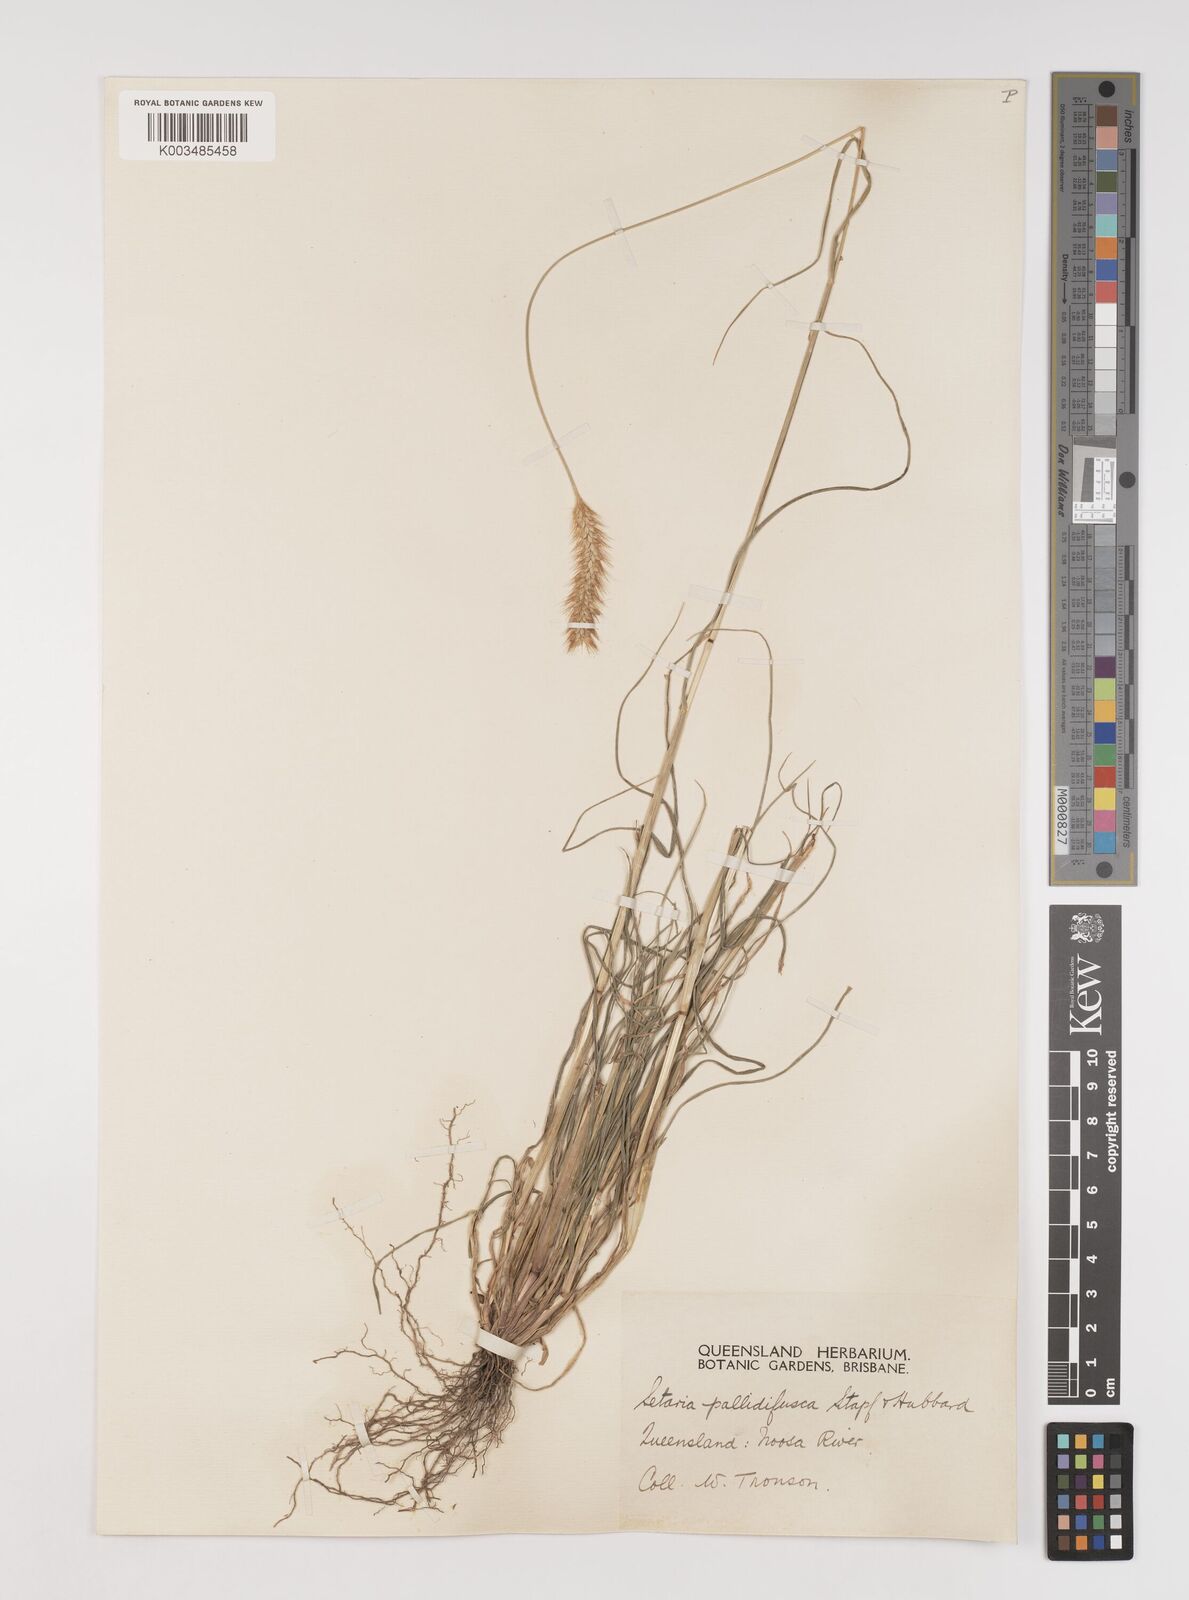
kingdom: Plantae
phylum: Tracheophyta
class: Liliopsida
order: Poales
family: Poaceae
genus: Setaria
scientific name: Setaria pumila
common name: Yellow bristle-grass
